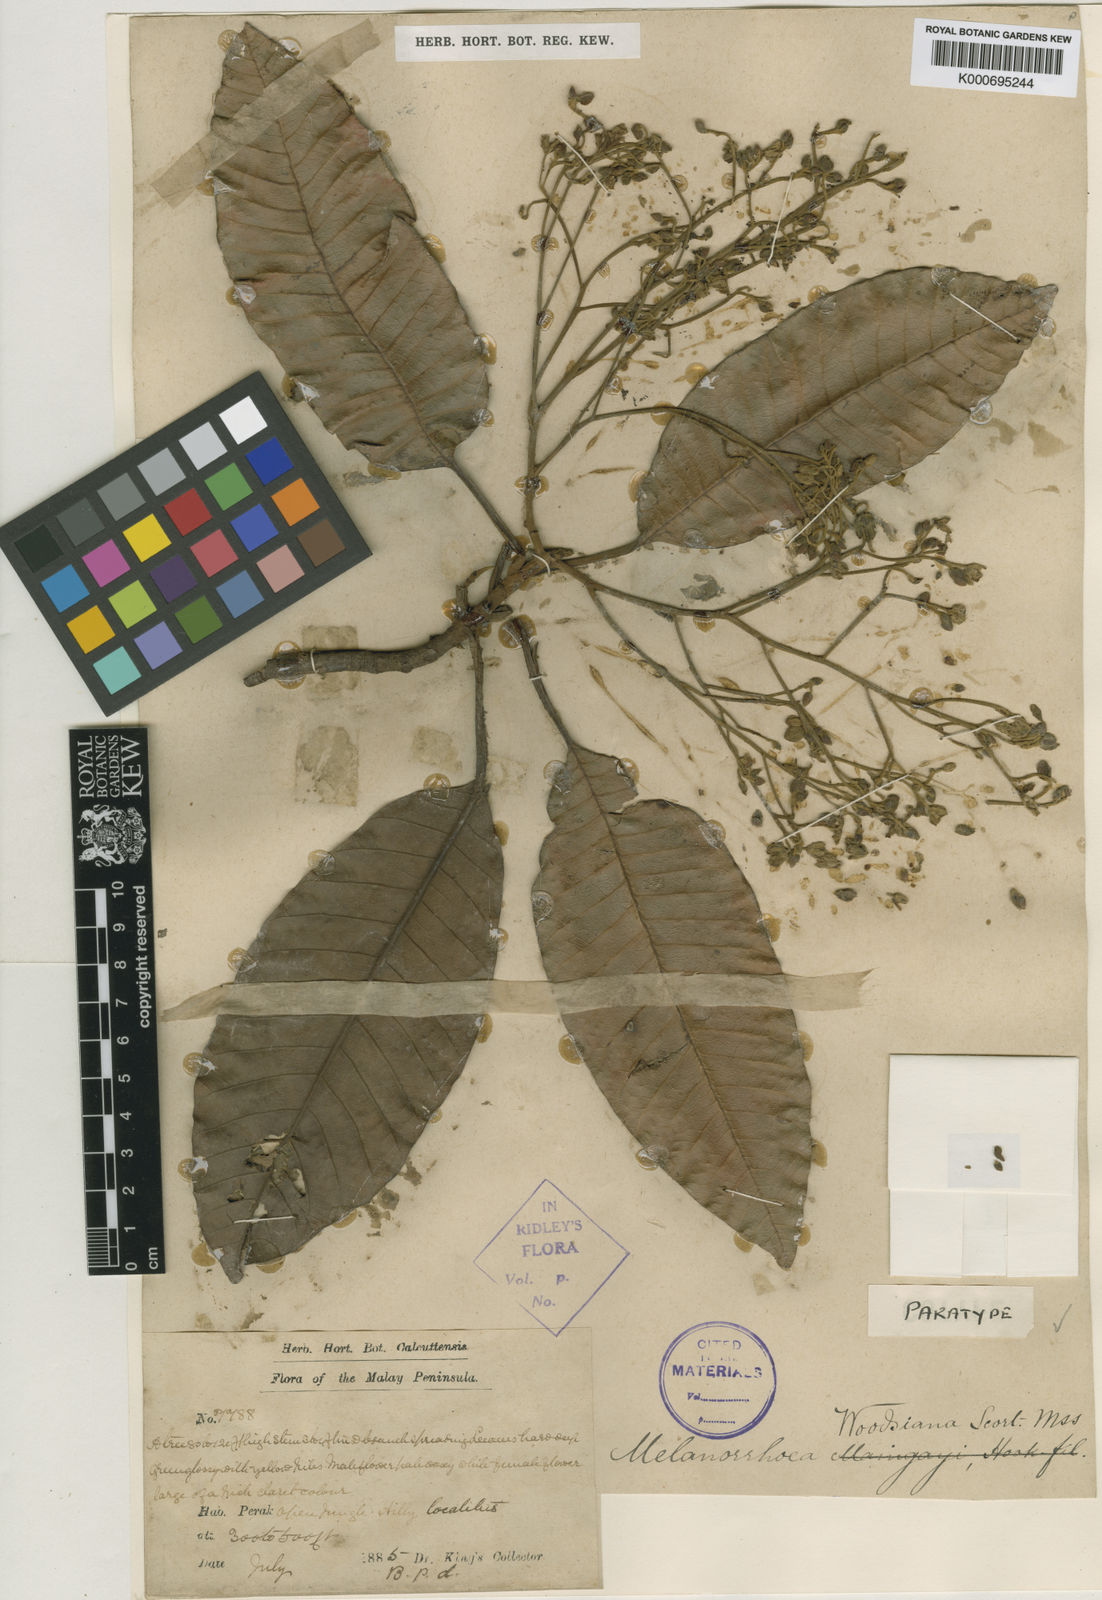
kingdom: Plantae
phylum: Tracheophyta
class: Magnoliopsida
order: Sapindales
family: Anacardiaceae
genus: Gluta
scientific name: Gluta wallichii
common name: Common rengas
